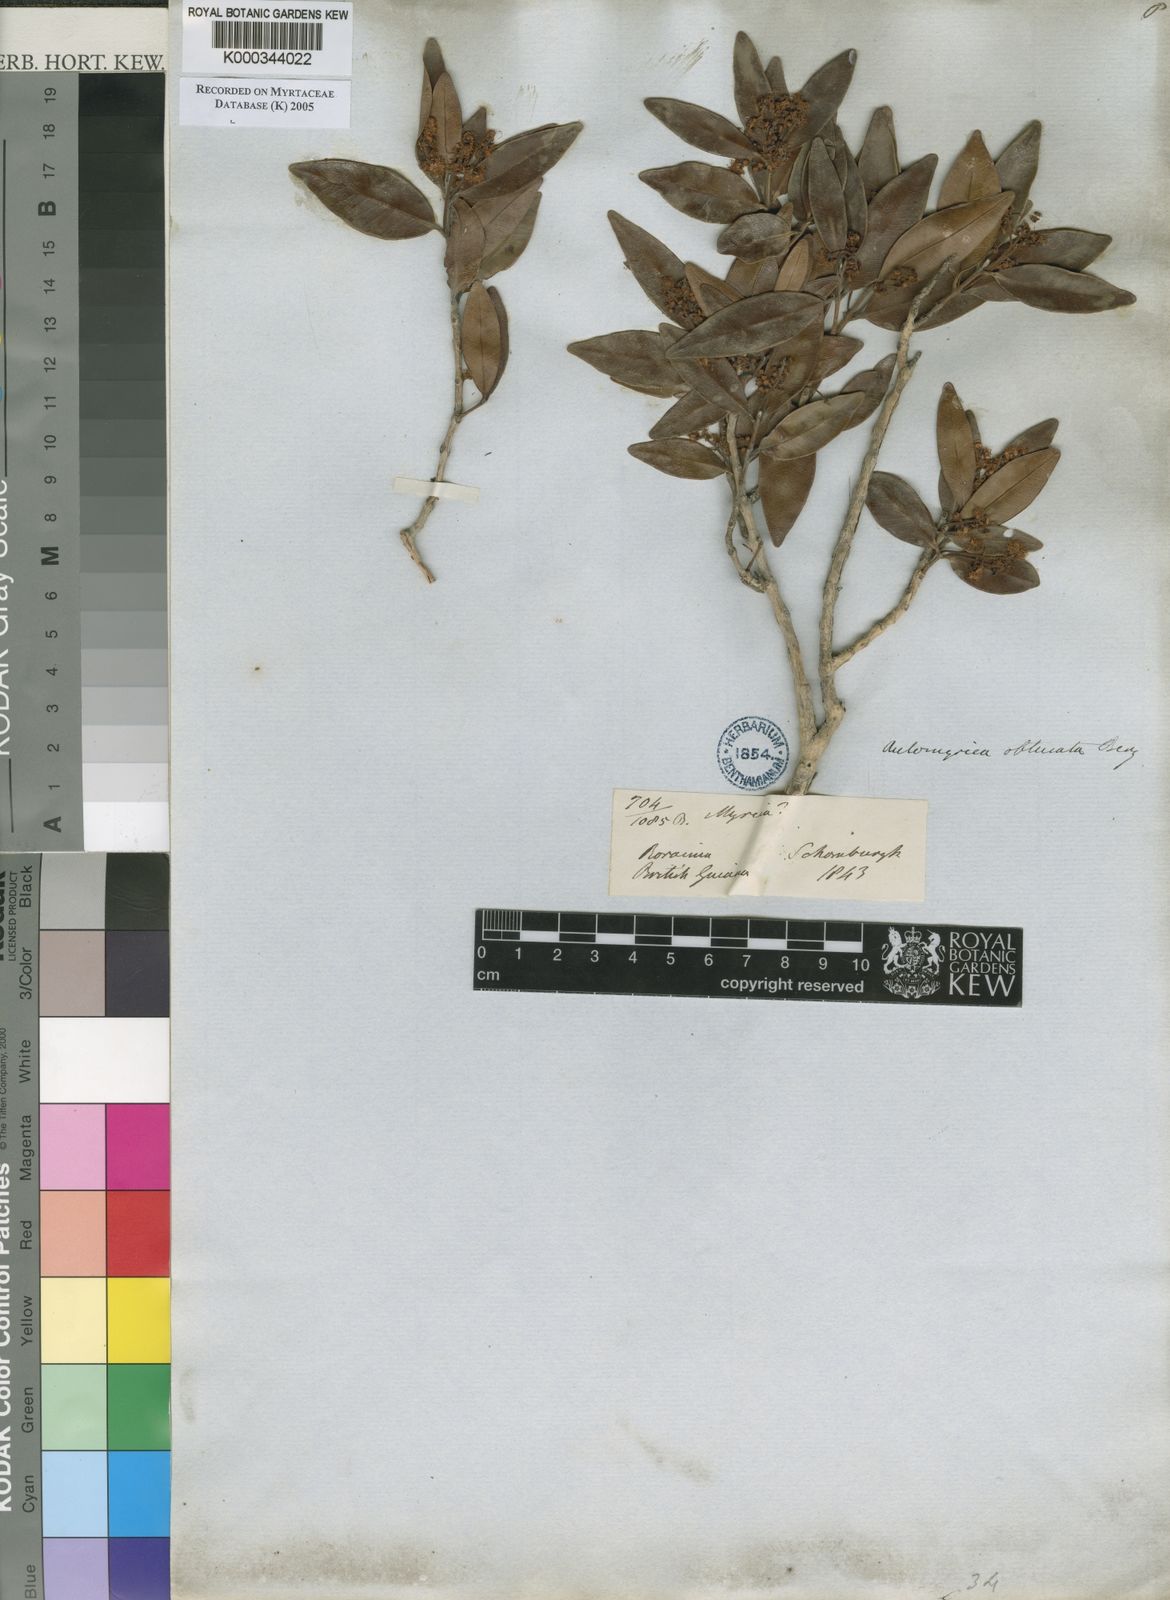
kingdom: Plantae
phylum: Tracheophyta
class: Magnoliopsida
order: Myrtales
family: Myrtaceae
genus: Myrcia
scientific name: Myrcia Aulomyrcia obtusata
